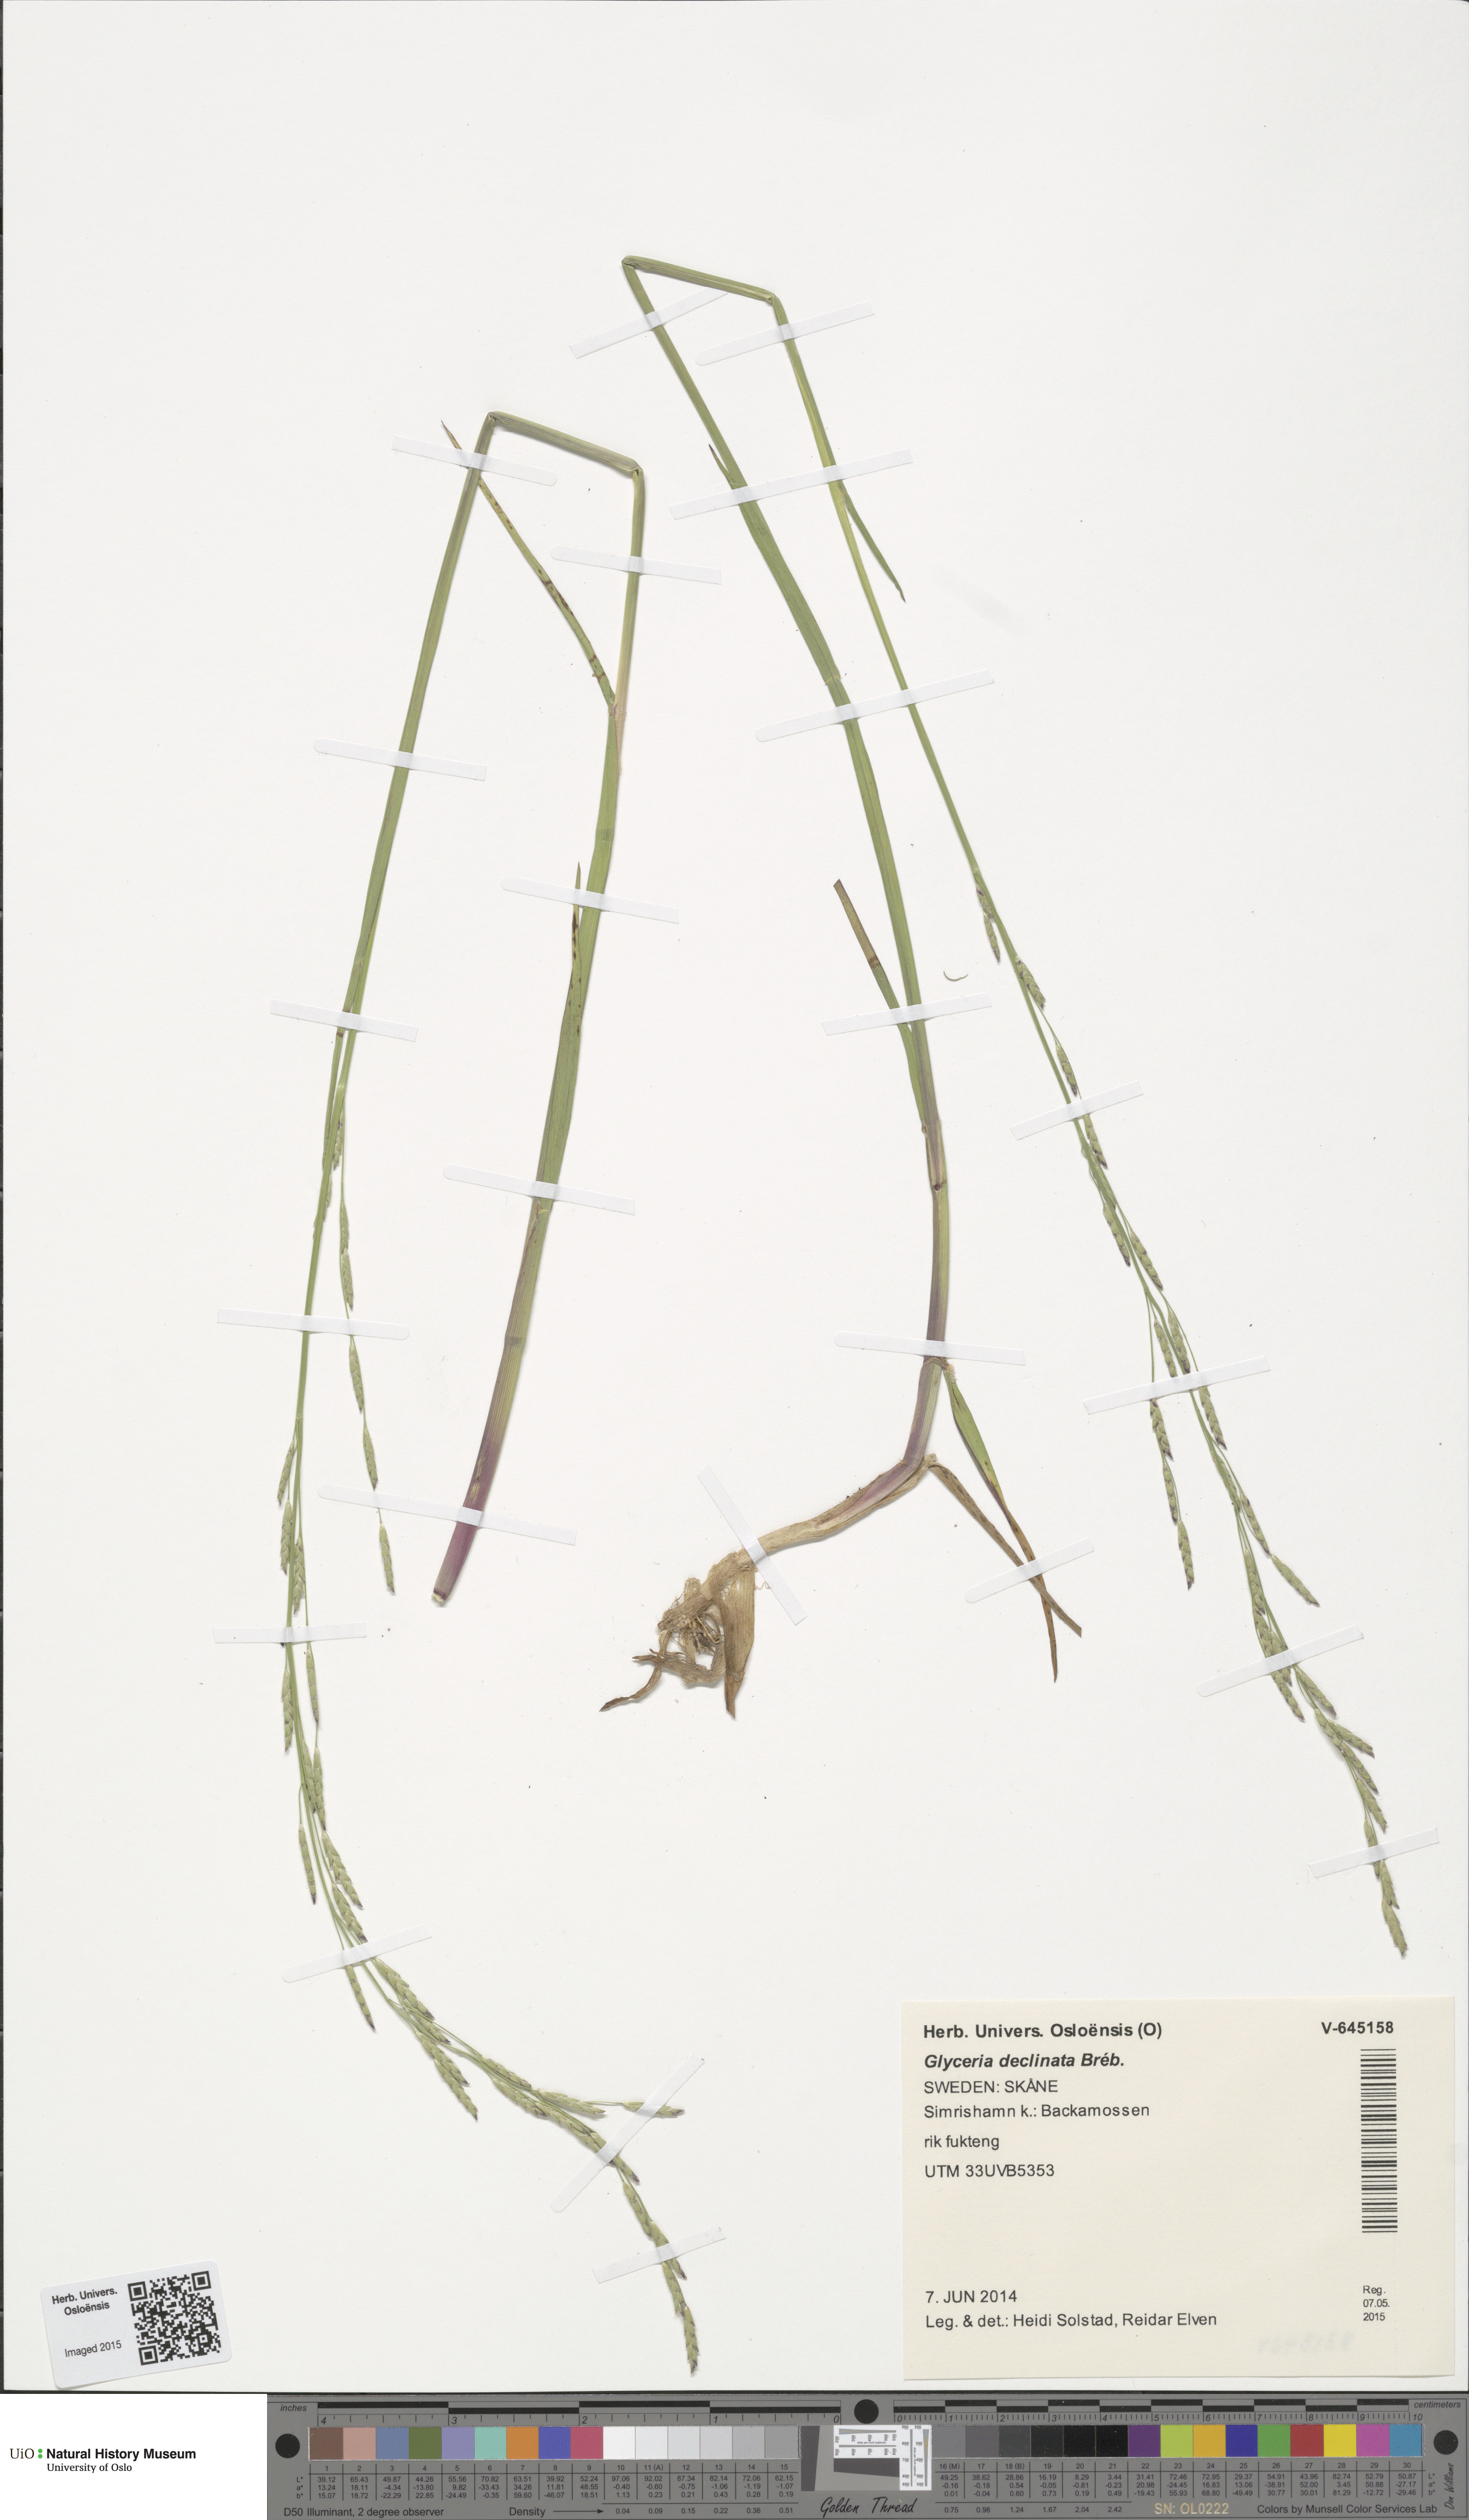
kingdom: Plantae
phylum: Tracheophyta
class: Liliopsida
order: Poales
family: Poaceae
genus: Glyceria
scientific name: Glyceria declinata
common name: Small sweet-grass
